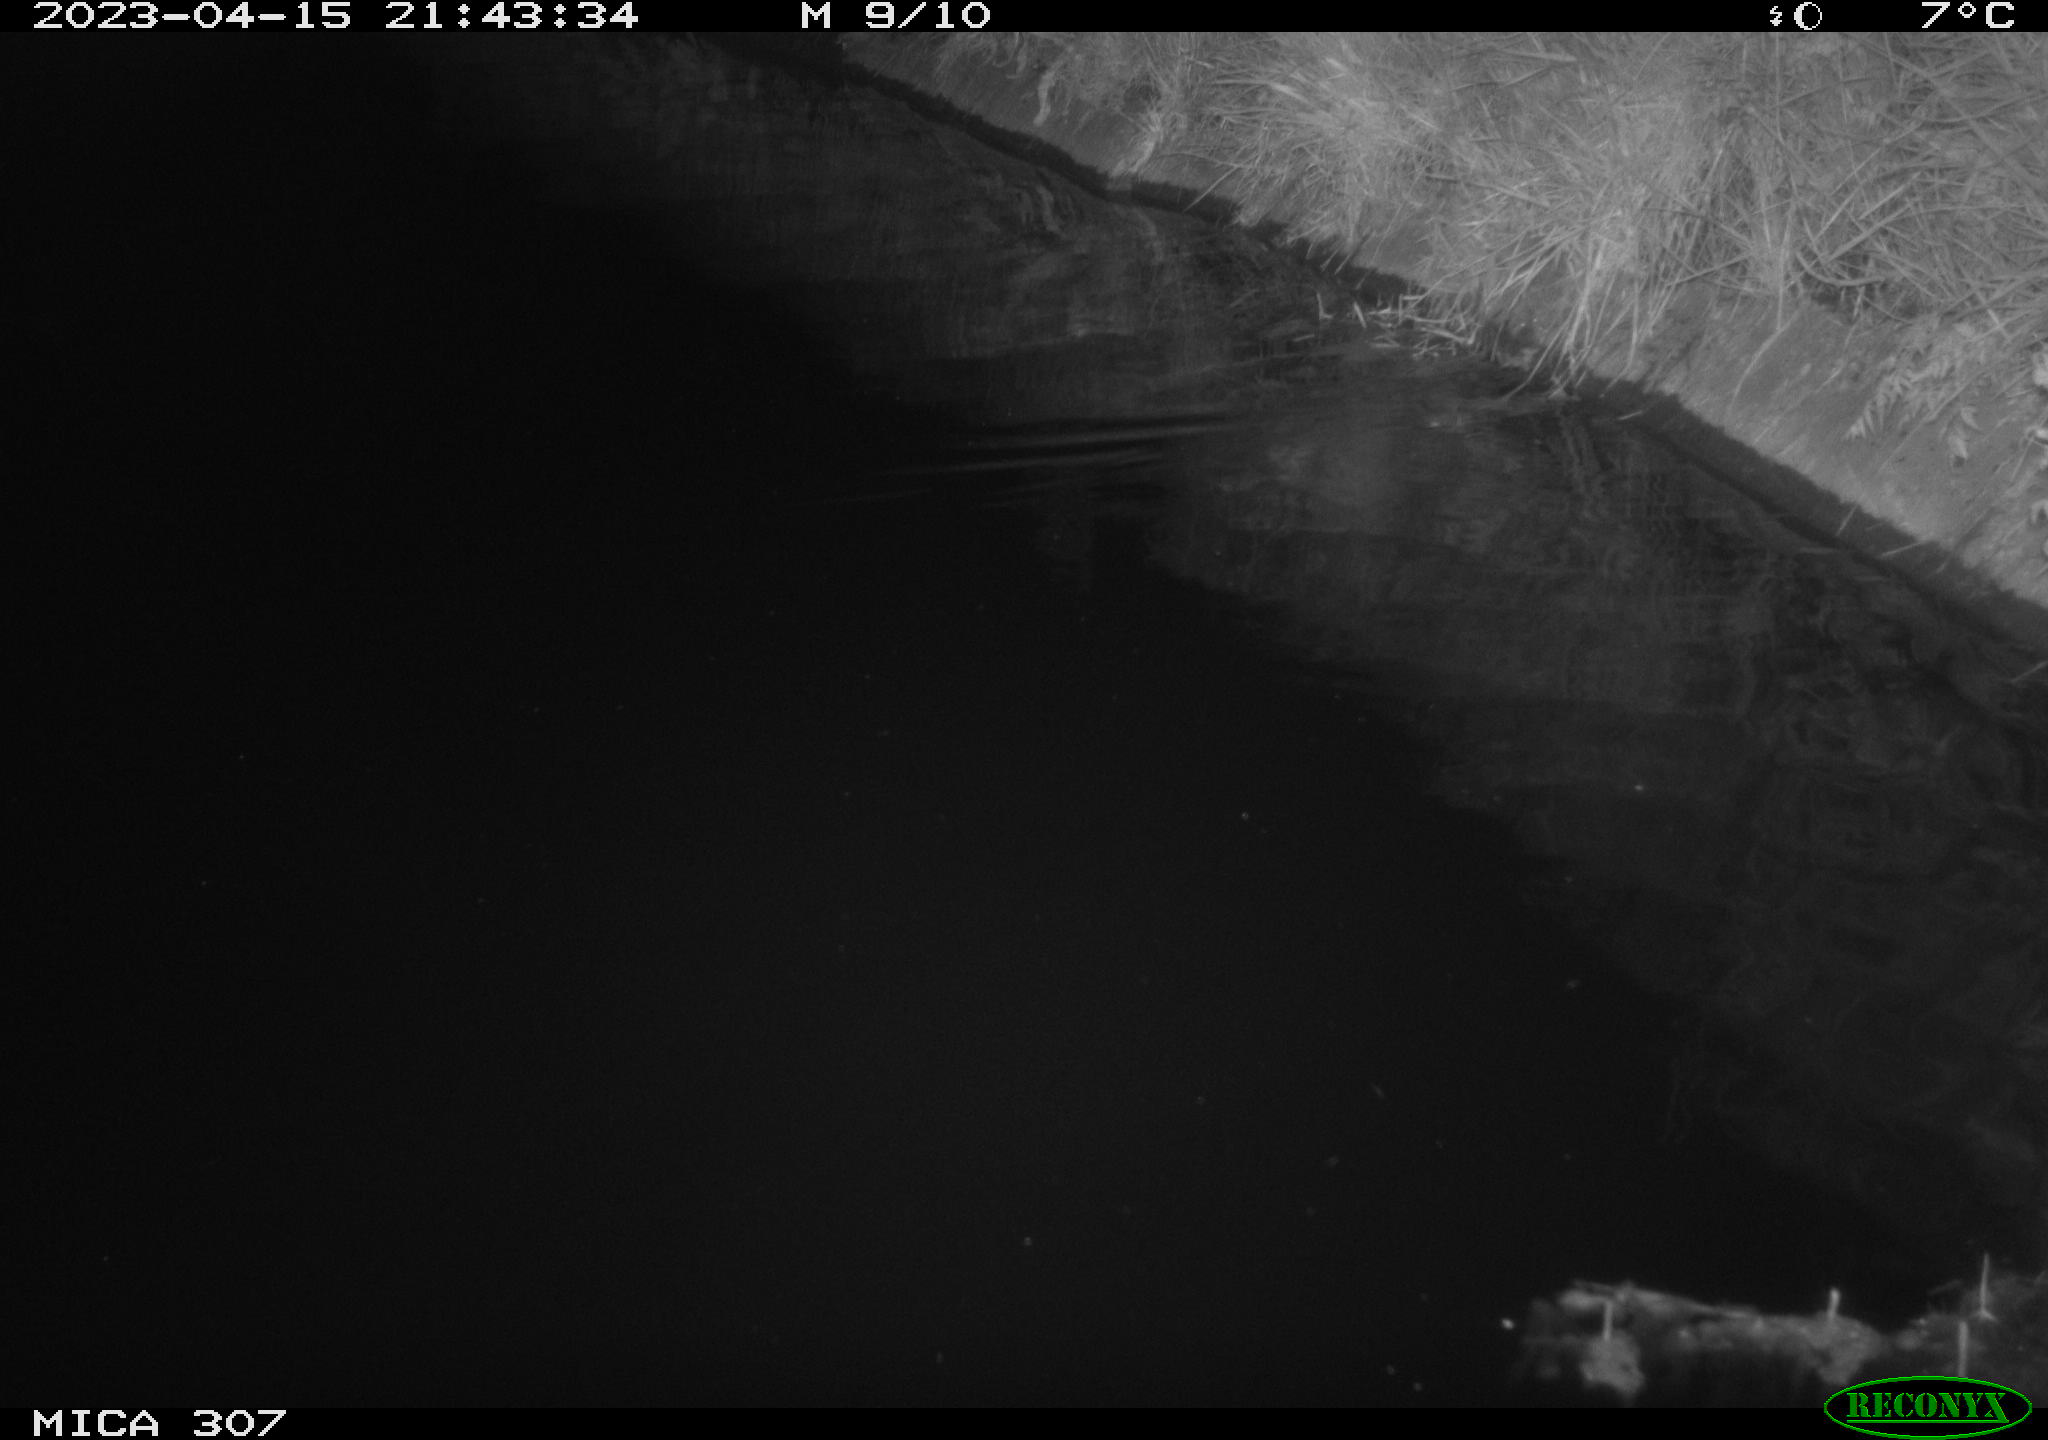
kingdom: Animalia
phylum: Chordata
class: Mammalia
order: Rodentia
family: Muridae
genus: Rattus
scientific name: Rattus norvegicus
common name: Brown rat
